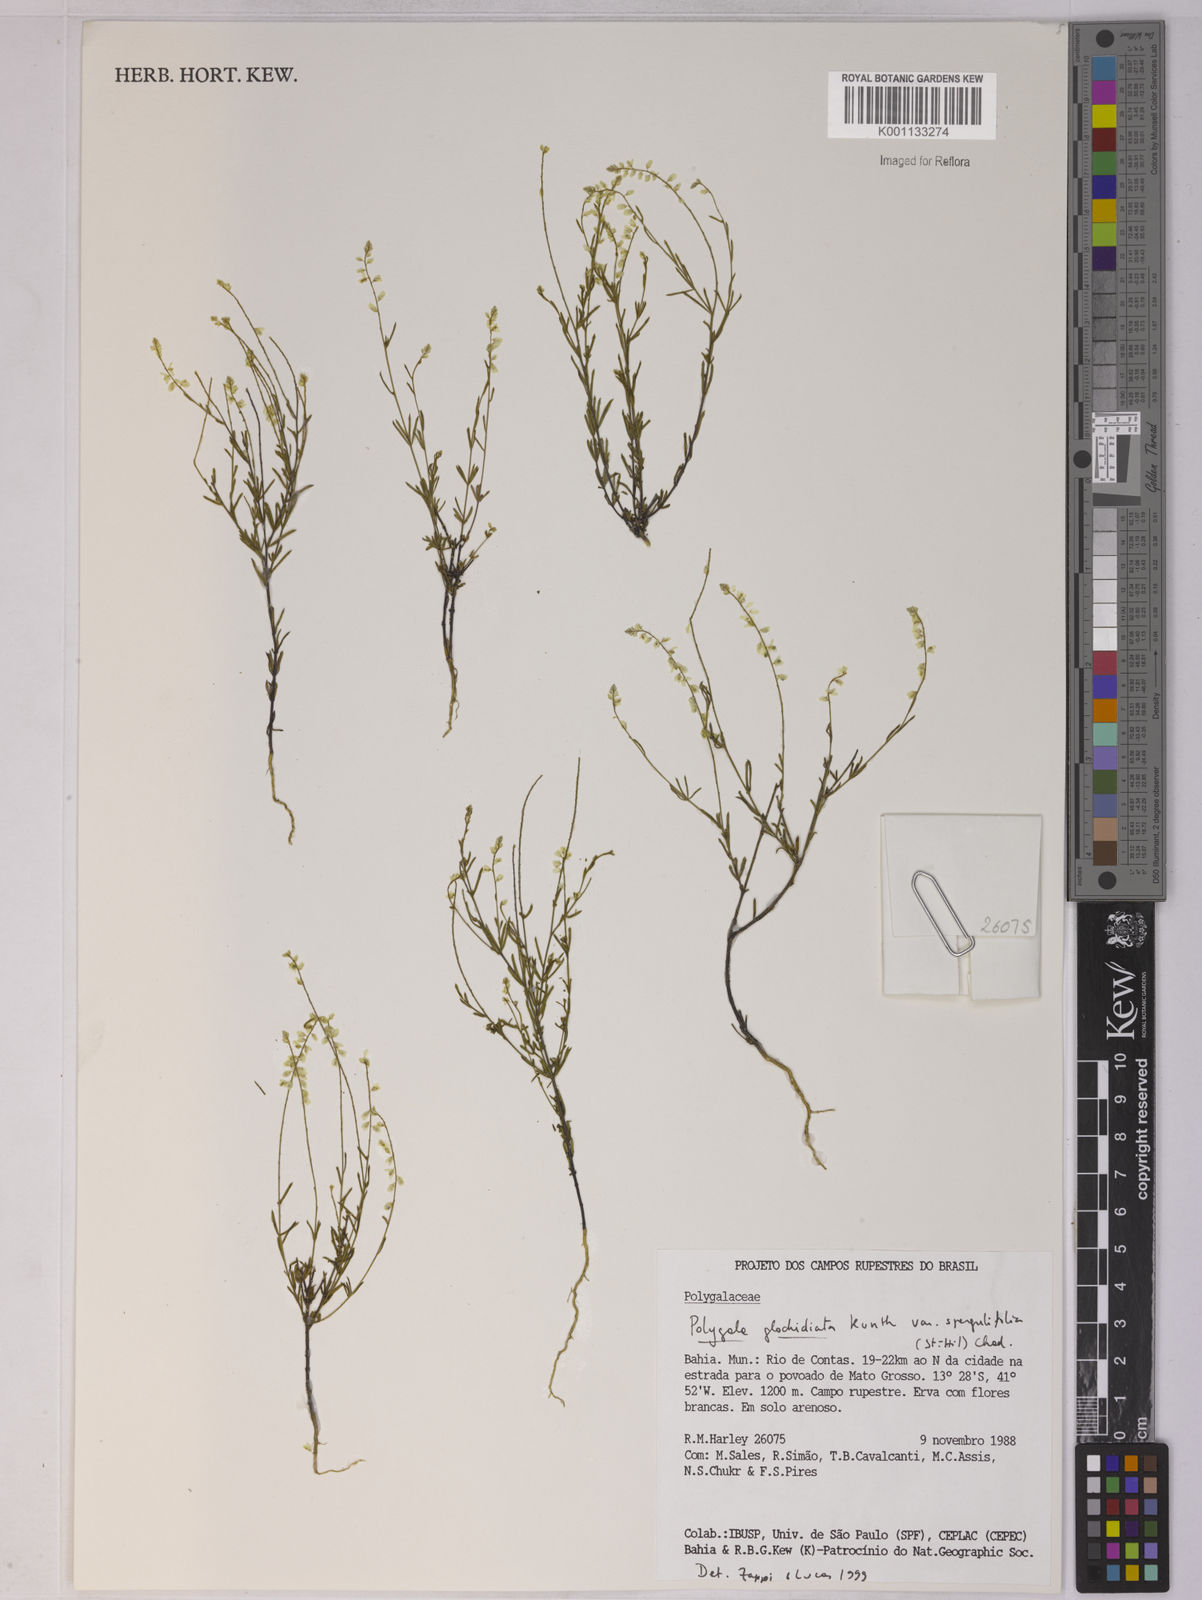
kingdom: Plantae
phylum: Tracheophyta
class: Magnoliopsida
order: Fabales
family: Polygalaceae
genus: Polygala
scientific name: Polygala glochidiata
